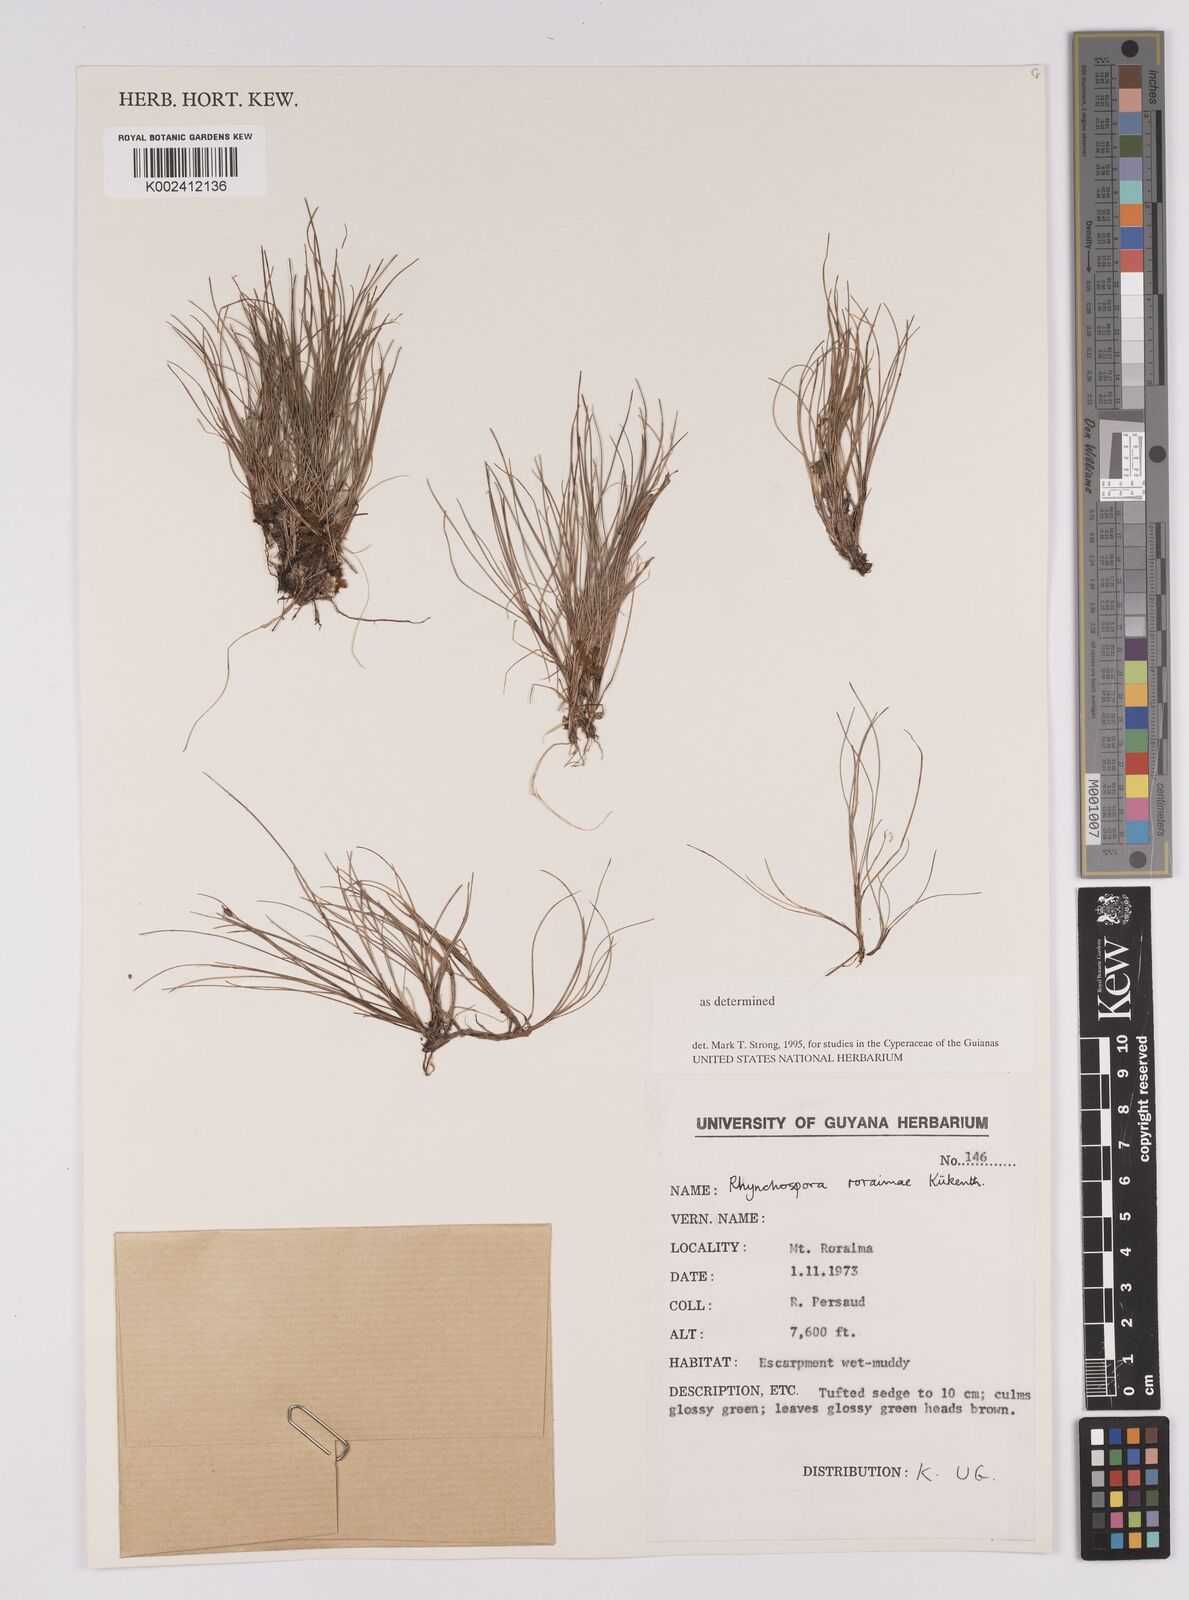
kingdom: Plantae
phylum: Tracheophyta
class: Liliopsida
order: Poales
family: Cyperaceae
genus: Rhynchospora
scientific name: Rhynchospora roraimae
